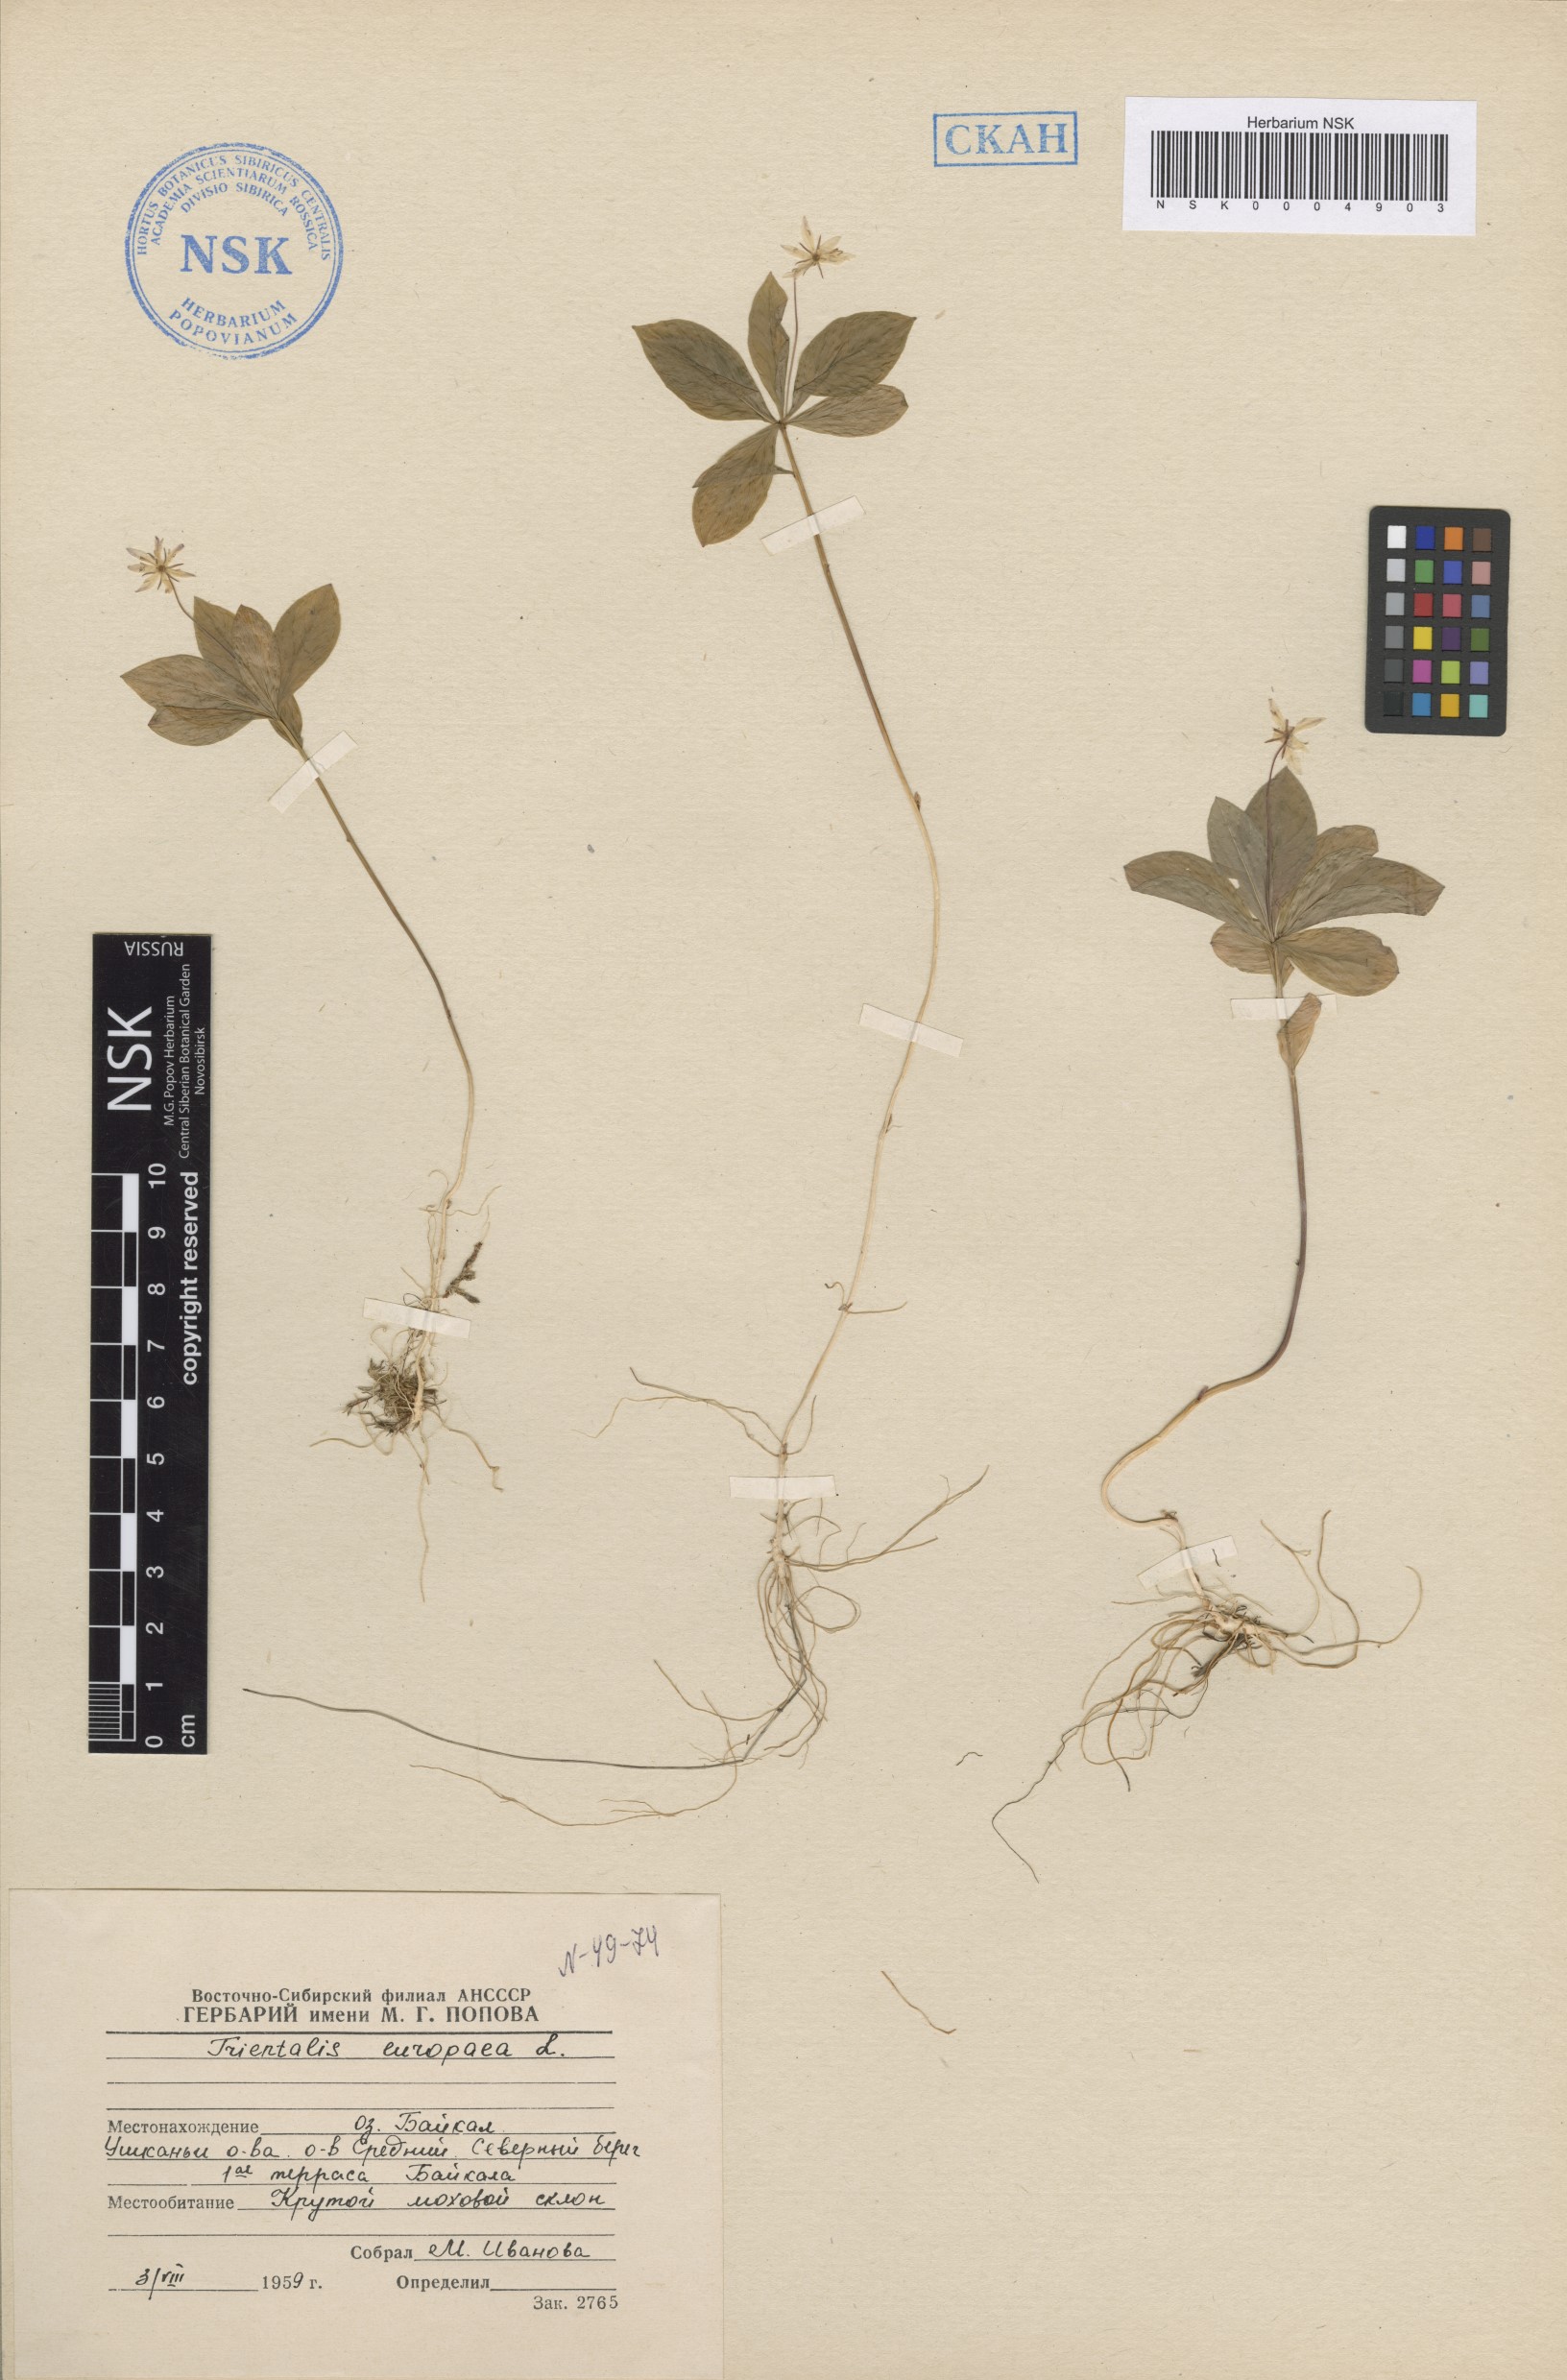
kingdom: Plantae
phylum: Tracheophyta
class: Magnoliopsida
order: Ericales
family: Primulaceae
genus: Lysimachia
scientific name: Lysimachia europaea
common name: Arctic starflower
